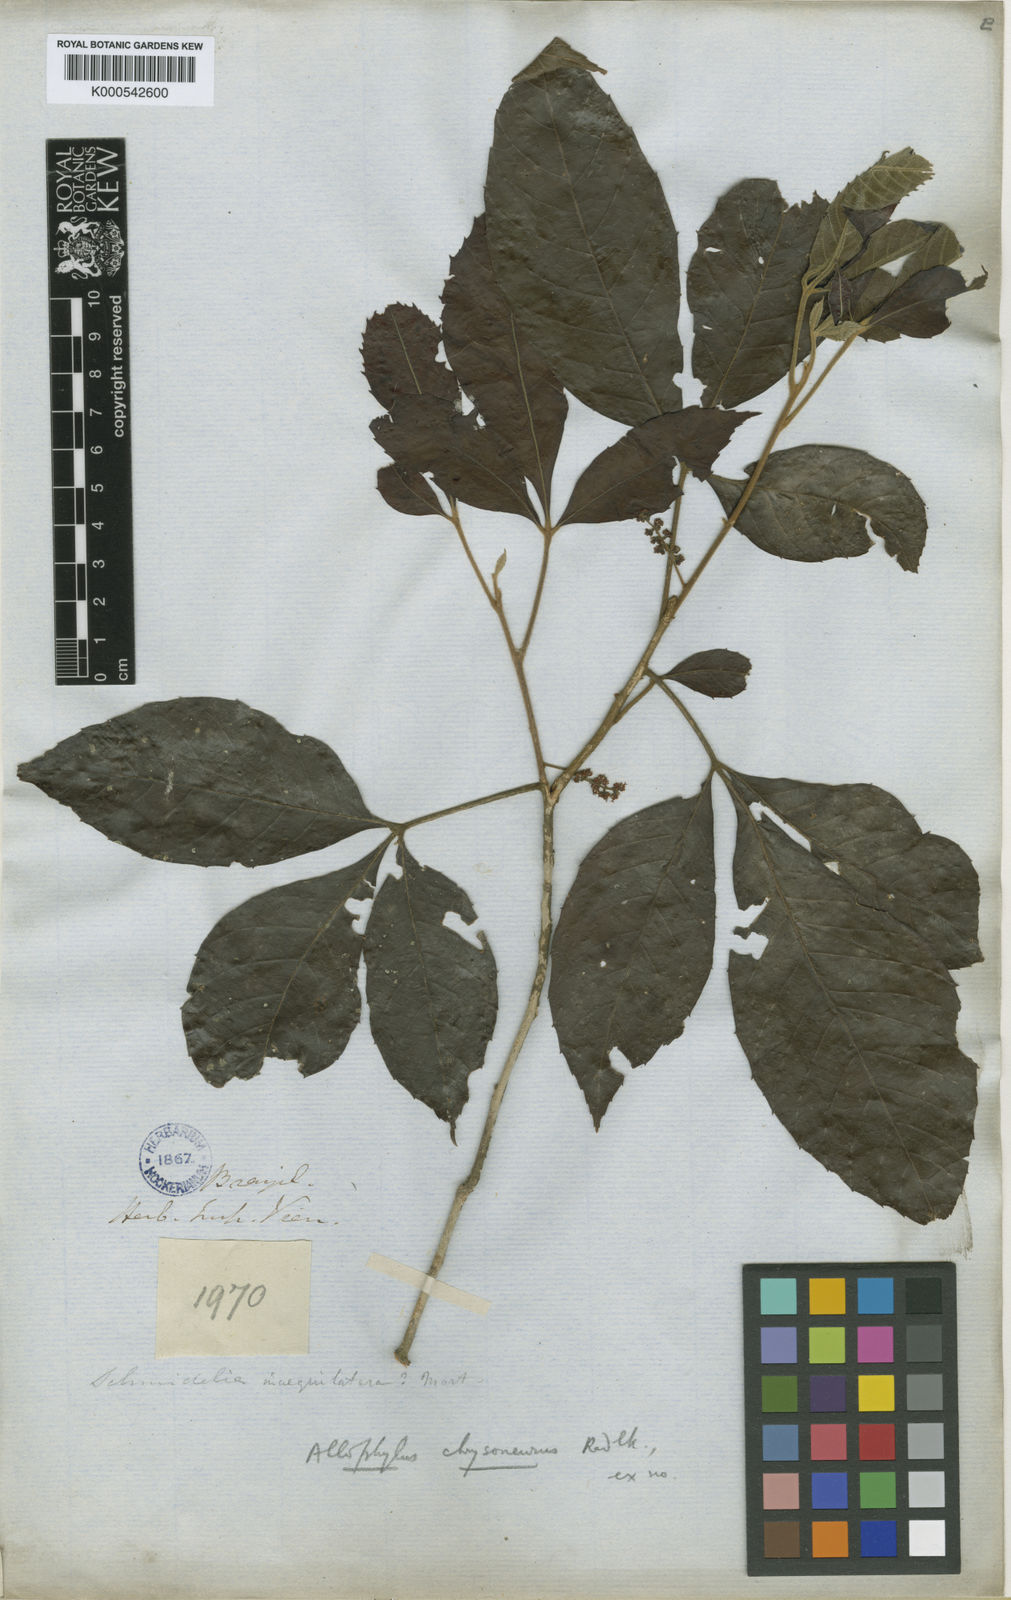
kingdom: Plantae
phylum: Tracheophyta
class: Magnoliopsida
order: Sapindales
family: Sapindaceae
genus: Allophylus
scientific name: Allophylus racemosus
